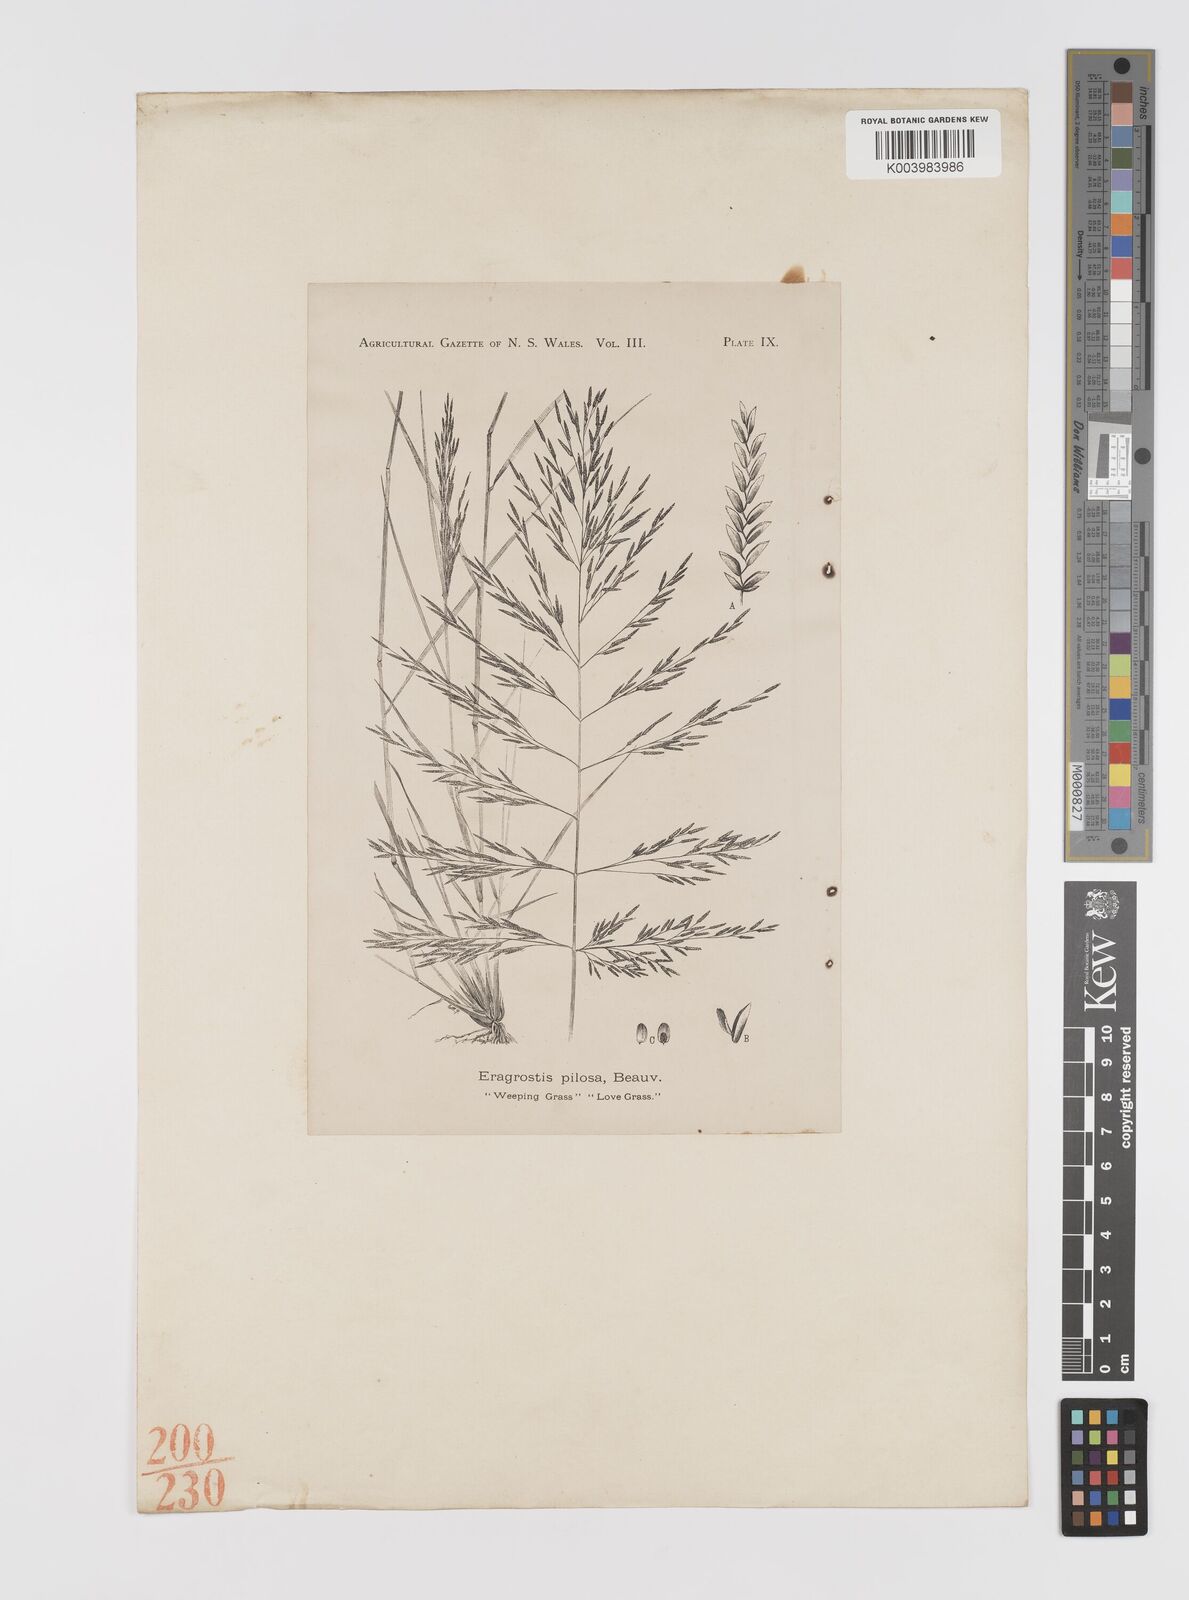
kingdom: Plantae
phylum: Tracheophyta
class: Liliopsida
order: Poales
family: Poaceae
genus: Eragrostis
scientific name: Eragrostis pilosa
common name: Indian lovegrass
